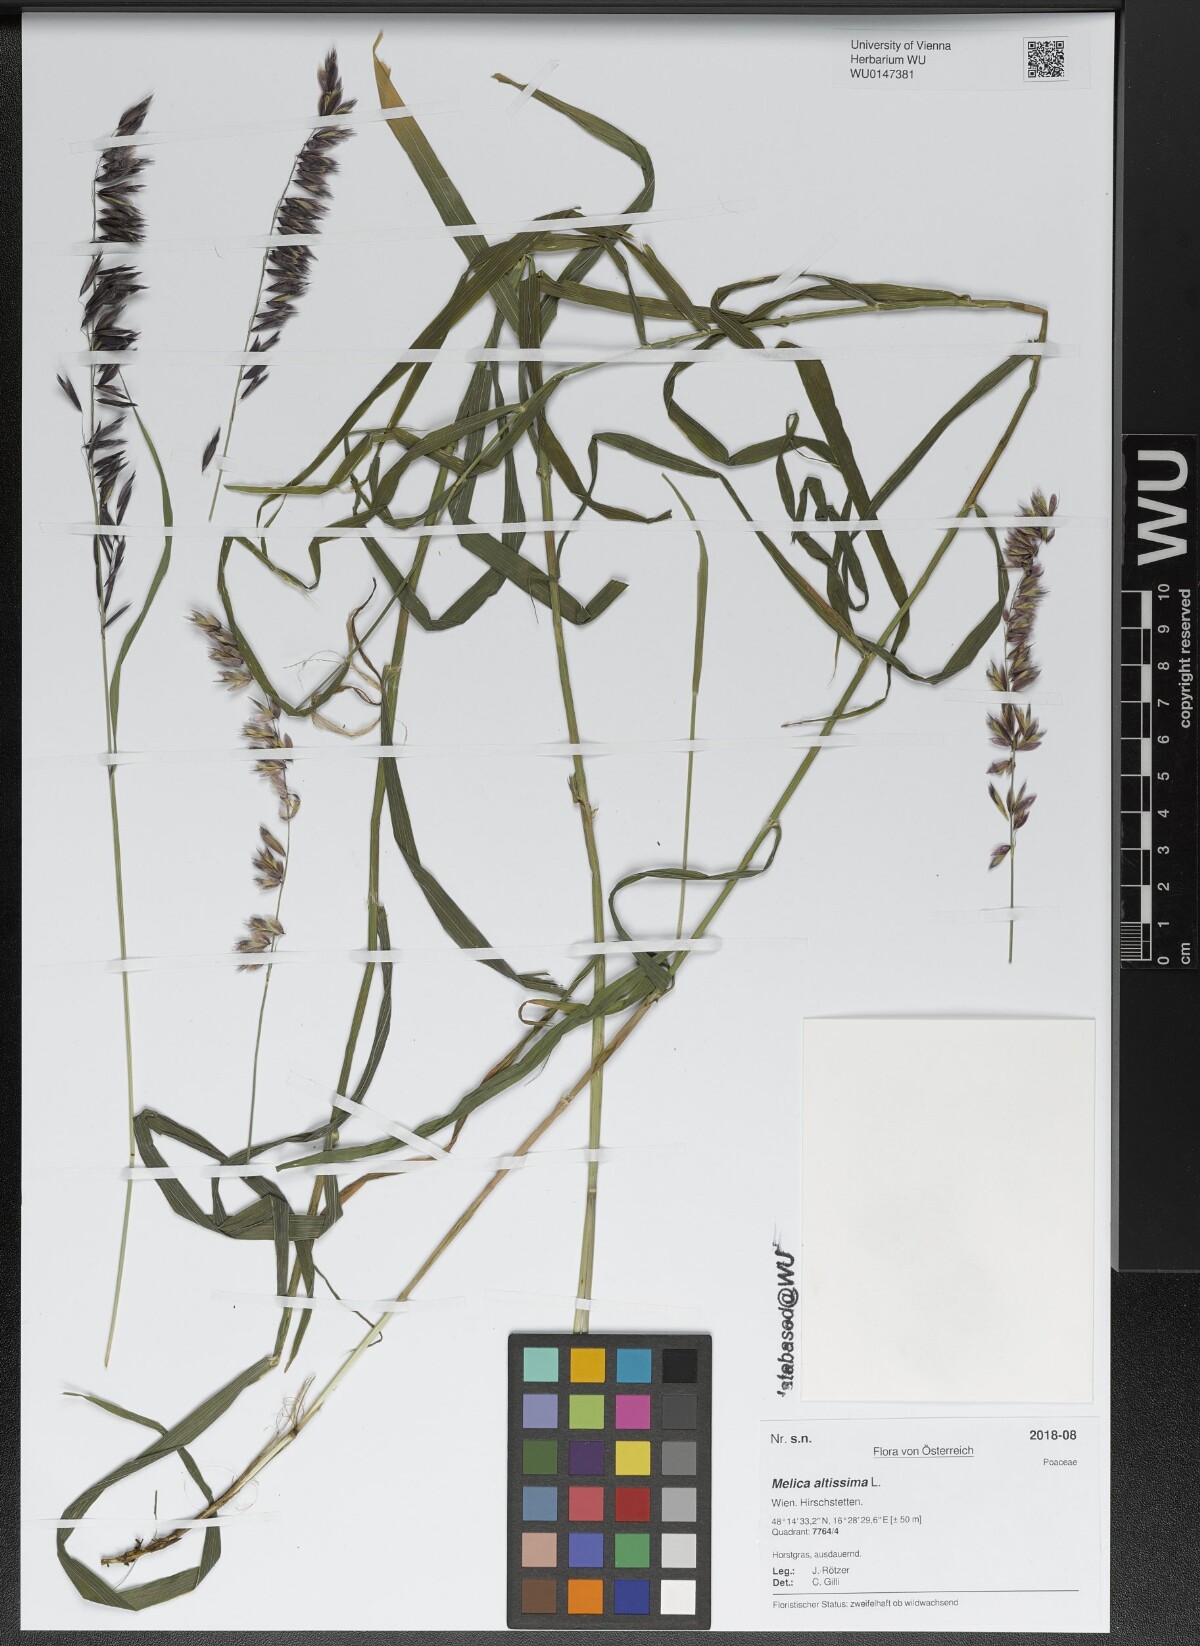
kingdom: Plantae
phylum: Tracheophyta
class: Liliopsida
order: Poales
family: Poaceae
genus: Melica
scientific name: Melica altissima
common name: Siberian melicgrass
